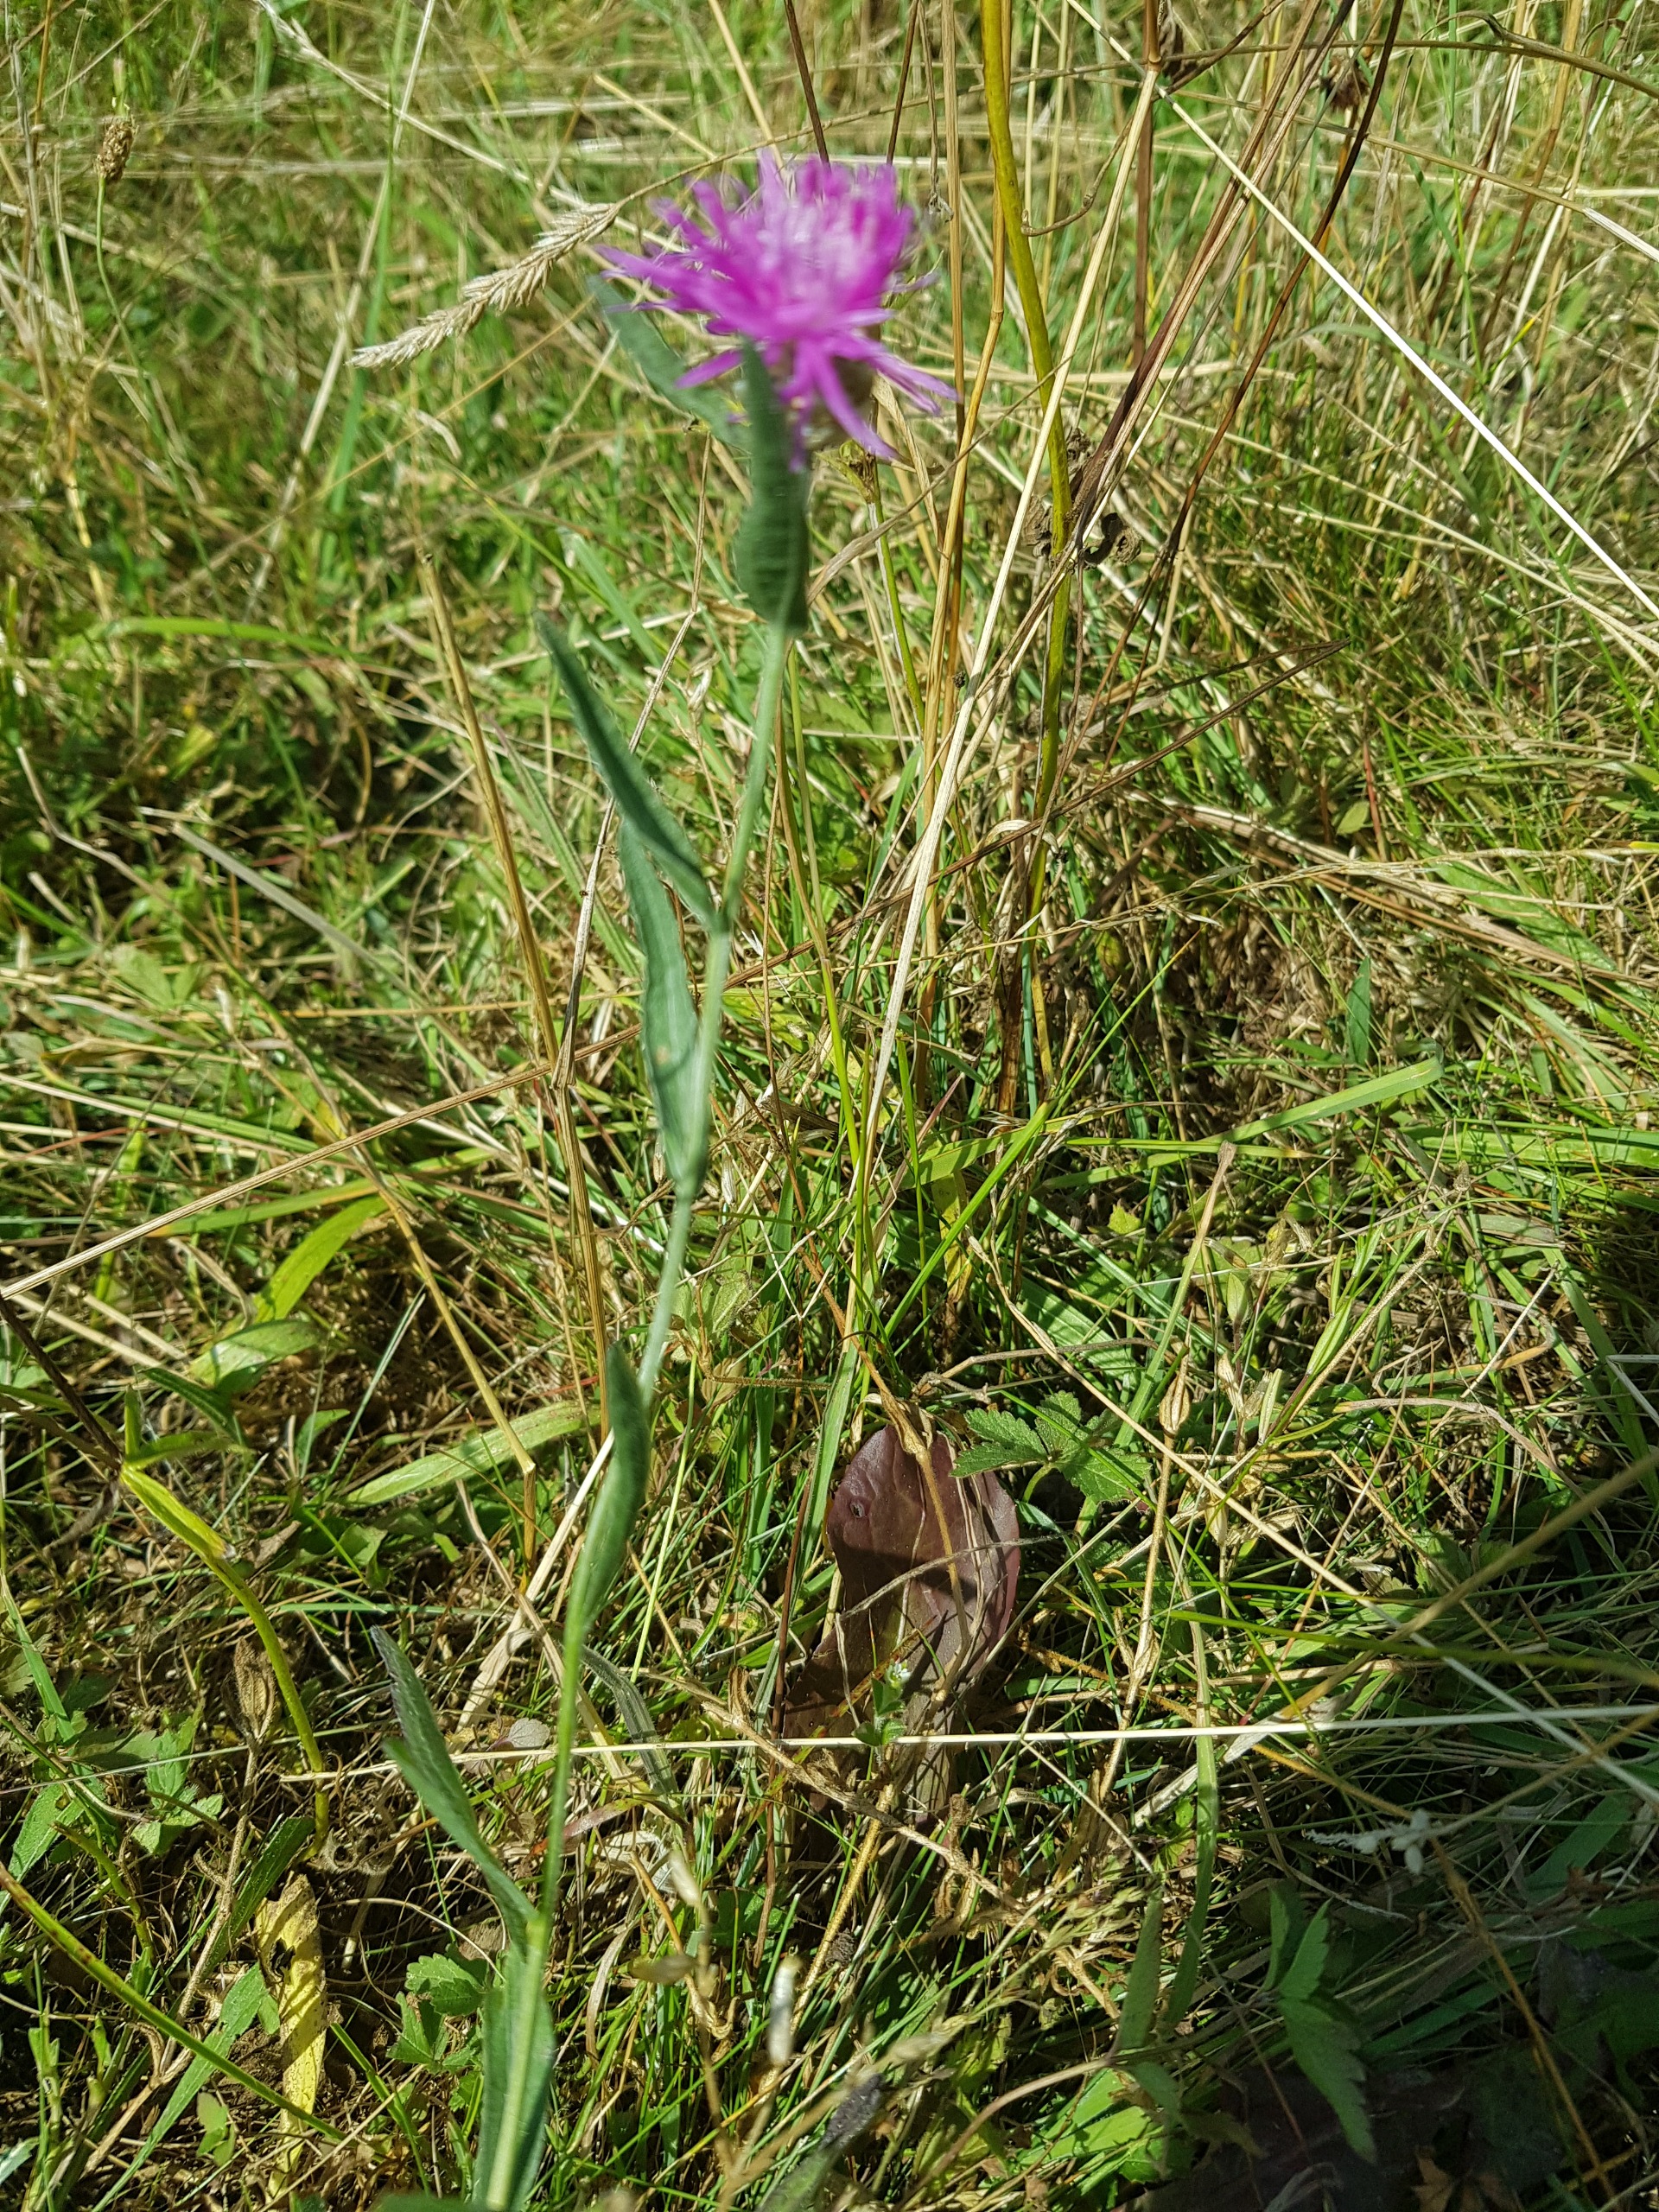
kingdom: Plantae
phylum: Tracheophyta
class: Magnoliopsida
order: Asterales
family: Asteraceae
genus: Centaurea
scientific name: Centaurea jacea
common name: Almindelig knopurt
